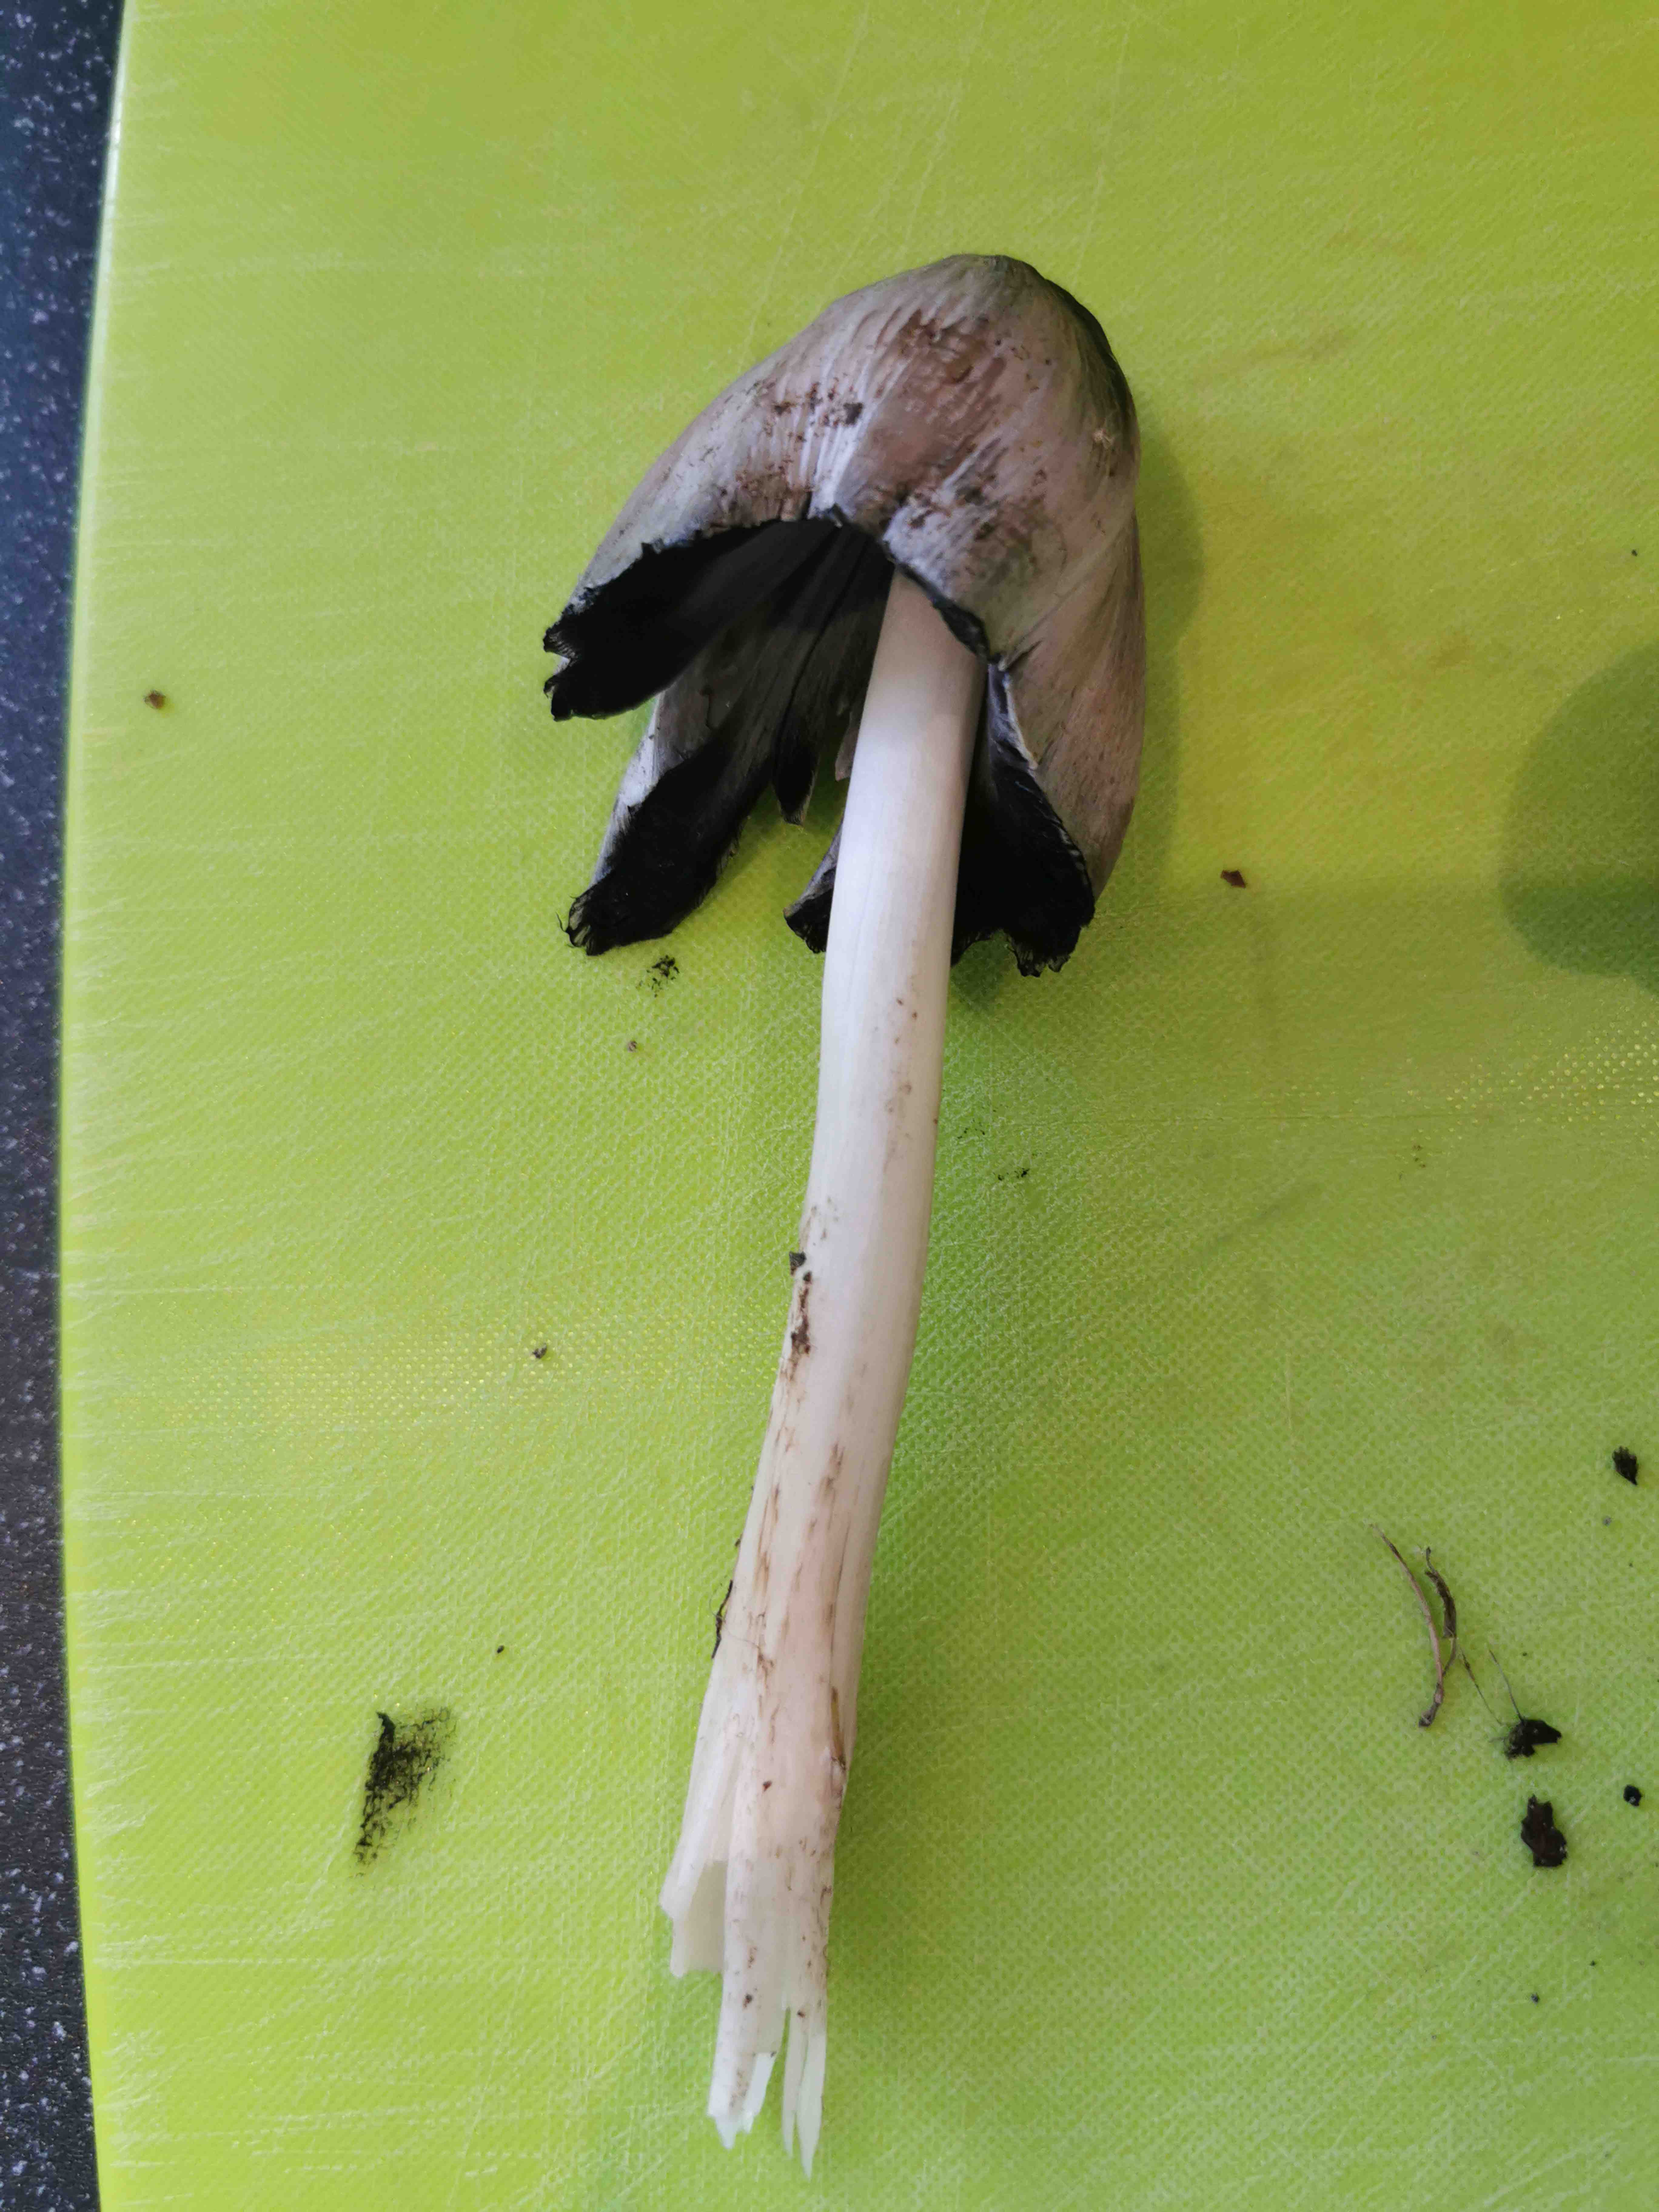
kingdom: Fungi
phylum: Basidiomycota
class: Agaricomycetes
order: Agaricales
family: Psathyrellaceae
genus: Coprinopsis
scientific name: Coprinopsis atramentaria
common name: almindelig blækhat
